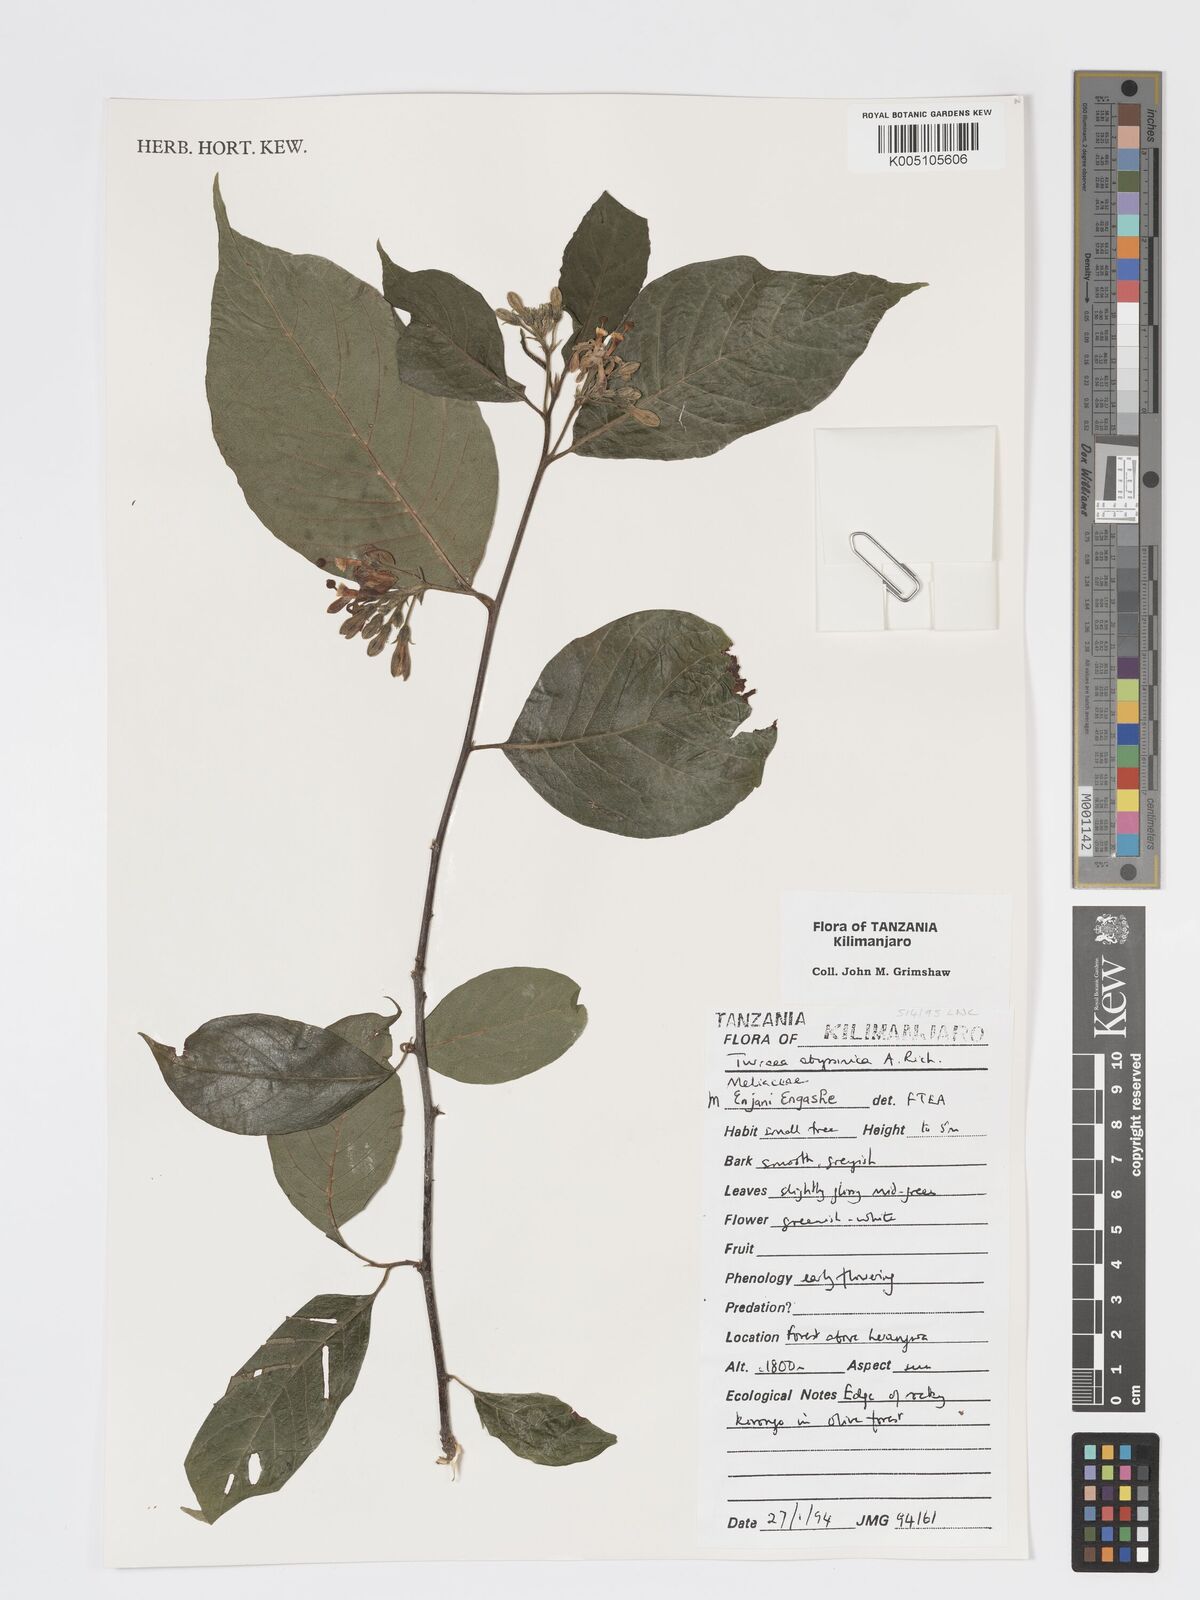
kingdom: Plantae
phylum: Tracheophyta
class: Magnoliopsida
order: Sapindales
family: Meliaceae
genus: Turraea
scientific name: Turraea abyssinica
